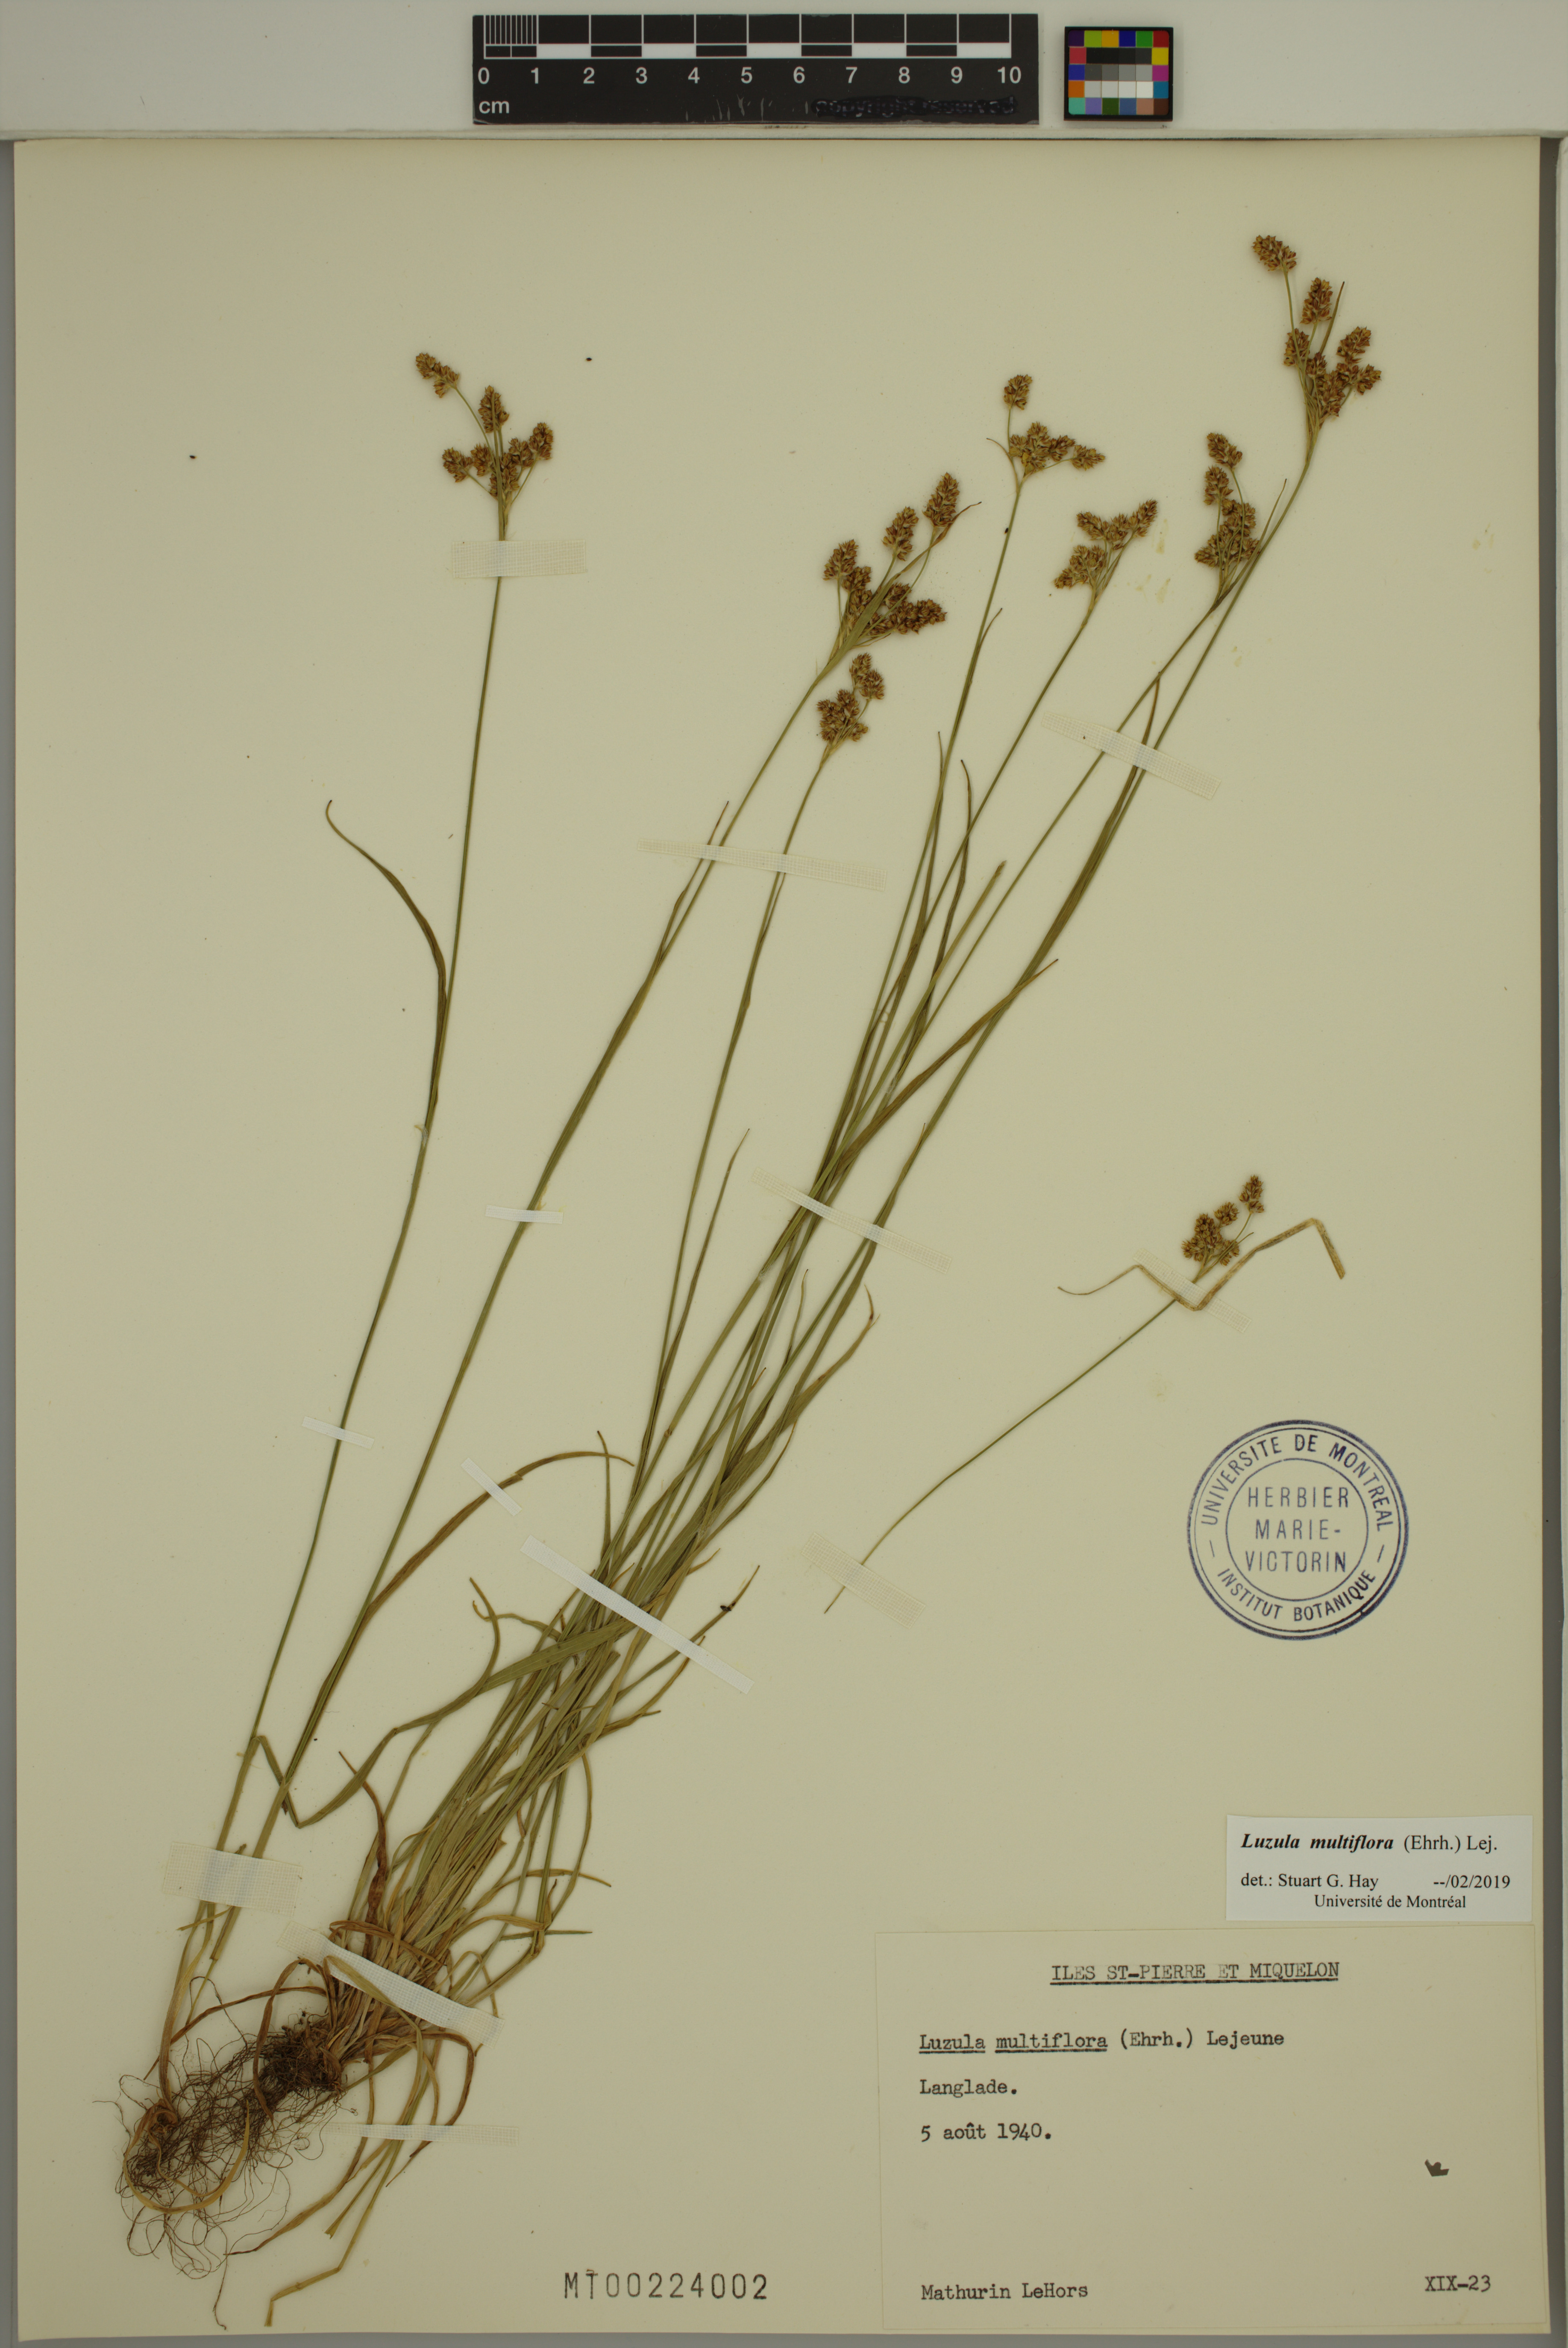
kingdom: Plantae
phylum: Tracheophyta
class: Liliopsida
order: Poales
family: Juncaceae
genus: Luzula
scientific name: Luzula multiflora
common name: Heath wood-rush
